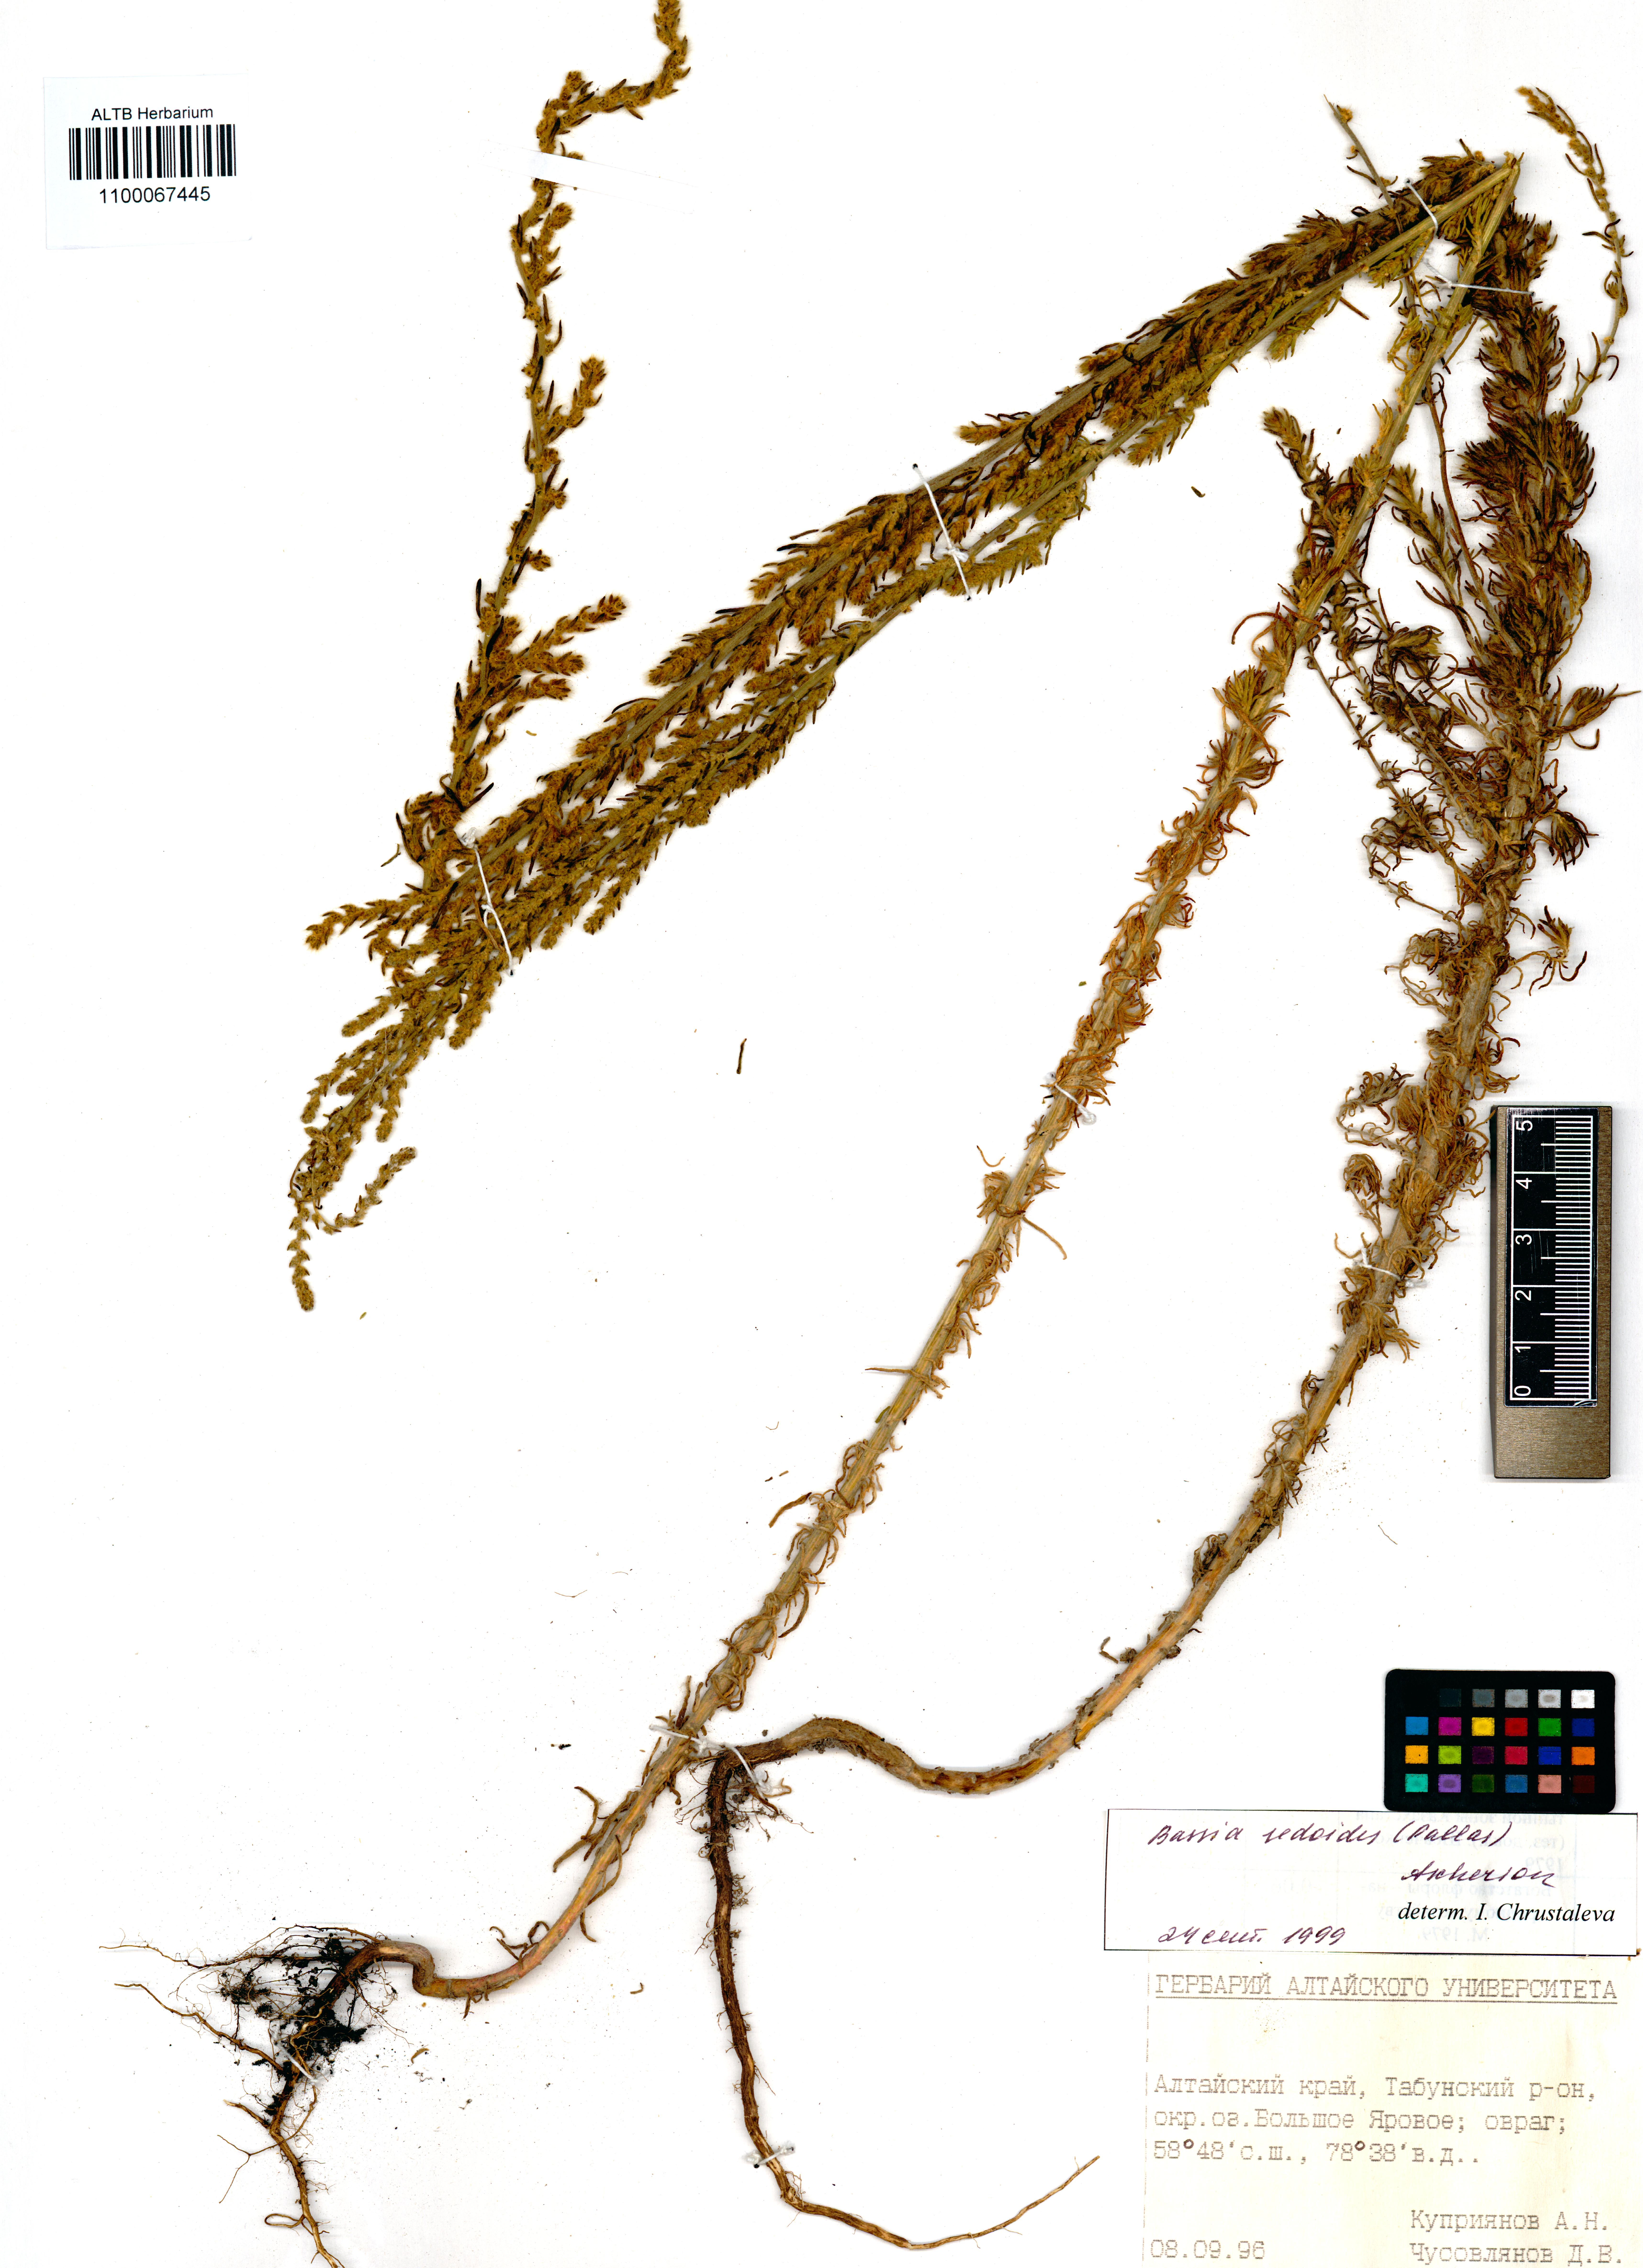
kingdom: Plantae
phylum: Tracheophyta
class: Magnoliopsida
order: Caryophyllales
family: Amaranthaceae
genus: Sedobassia
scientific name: Sedobassia sedoides
